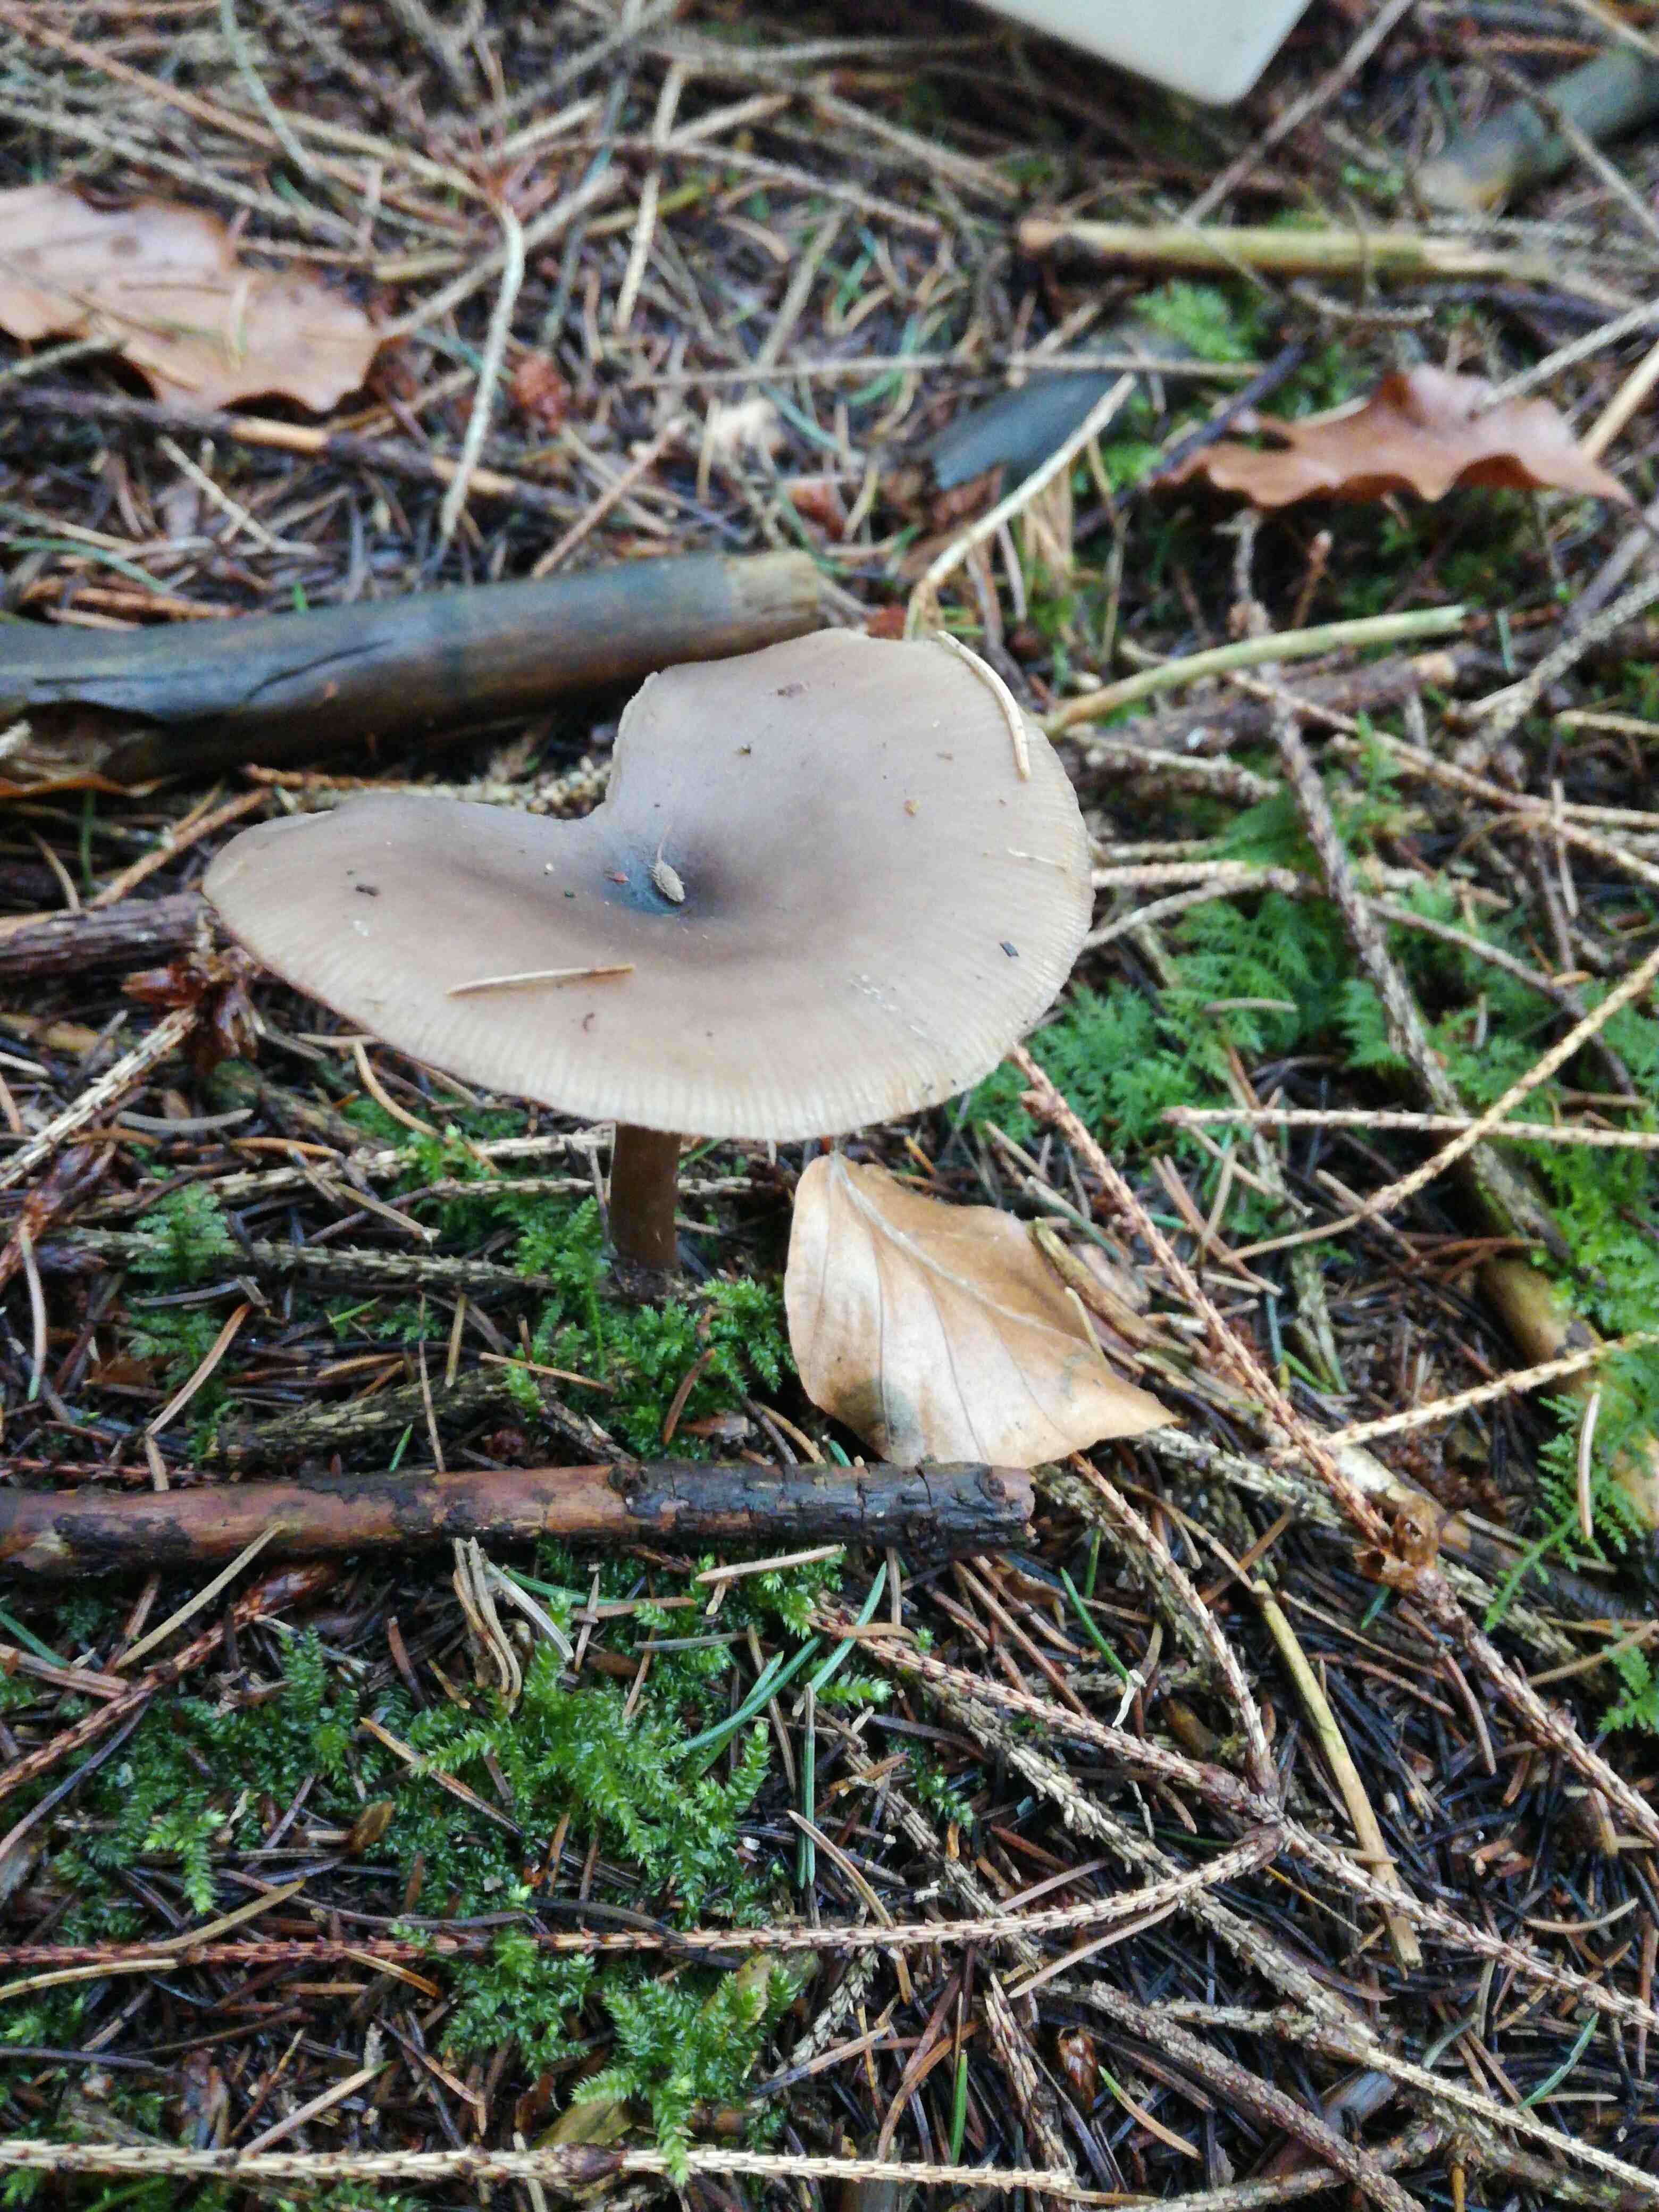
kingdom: Fungi
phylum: Basidiomycota
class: Agaricomycetes
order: Agaricales
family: Pseudoclitocybaceae
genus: Pseudoclitocybe
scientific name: Pseudoclitocybe cyathiformis
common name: almindelig bægertragthat
